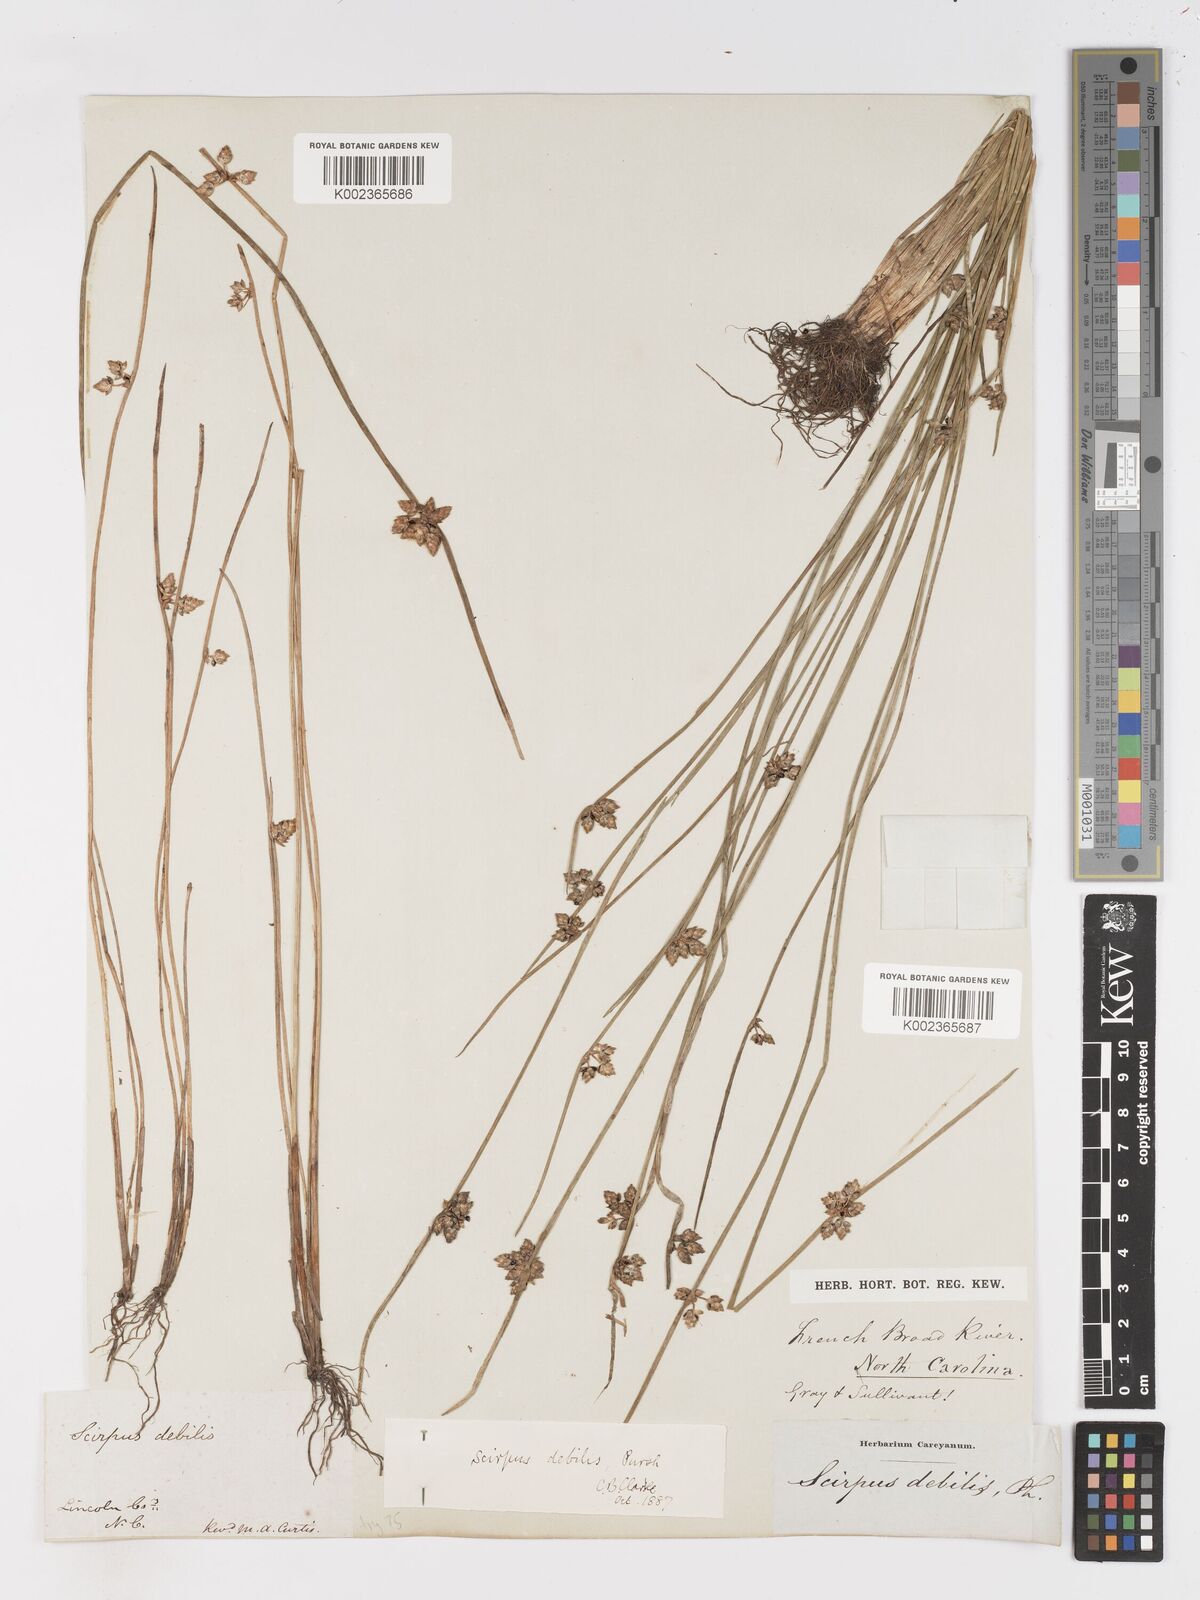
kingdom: Plantae
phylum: Tracheophyta
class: Liliopsida
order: Poales
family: Cyperaceae
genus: Schoenoplectiella
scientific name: Schoenoplectiella purshiana
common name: Weak-stalked bulrush
